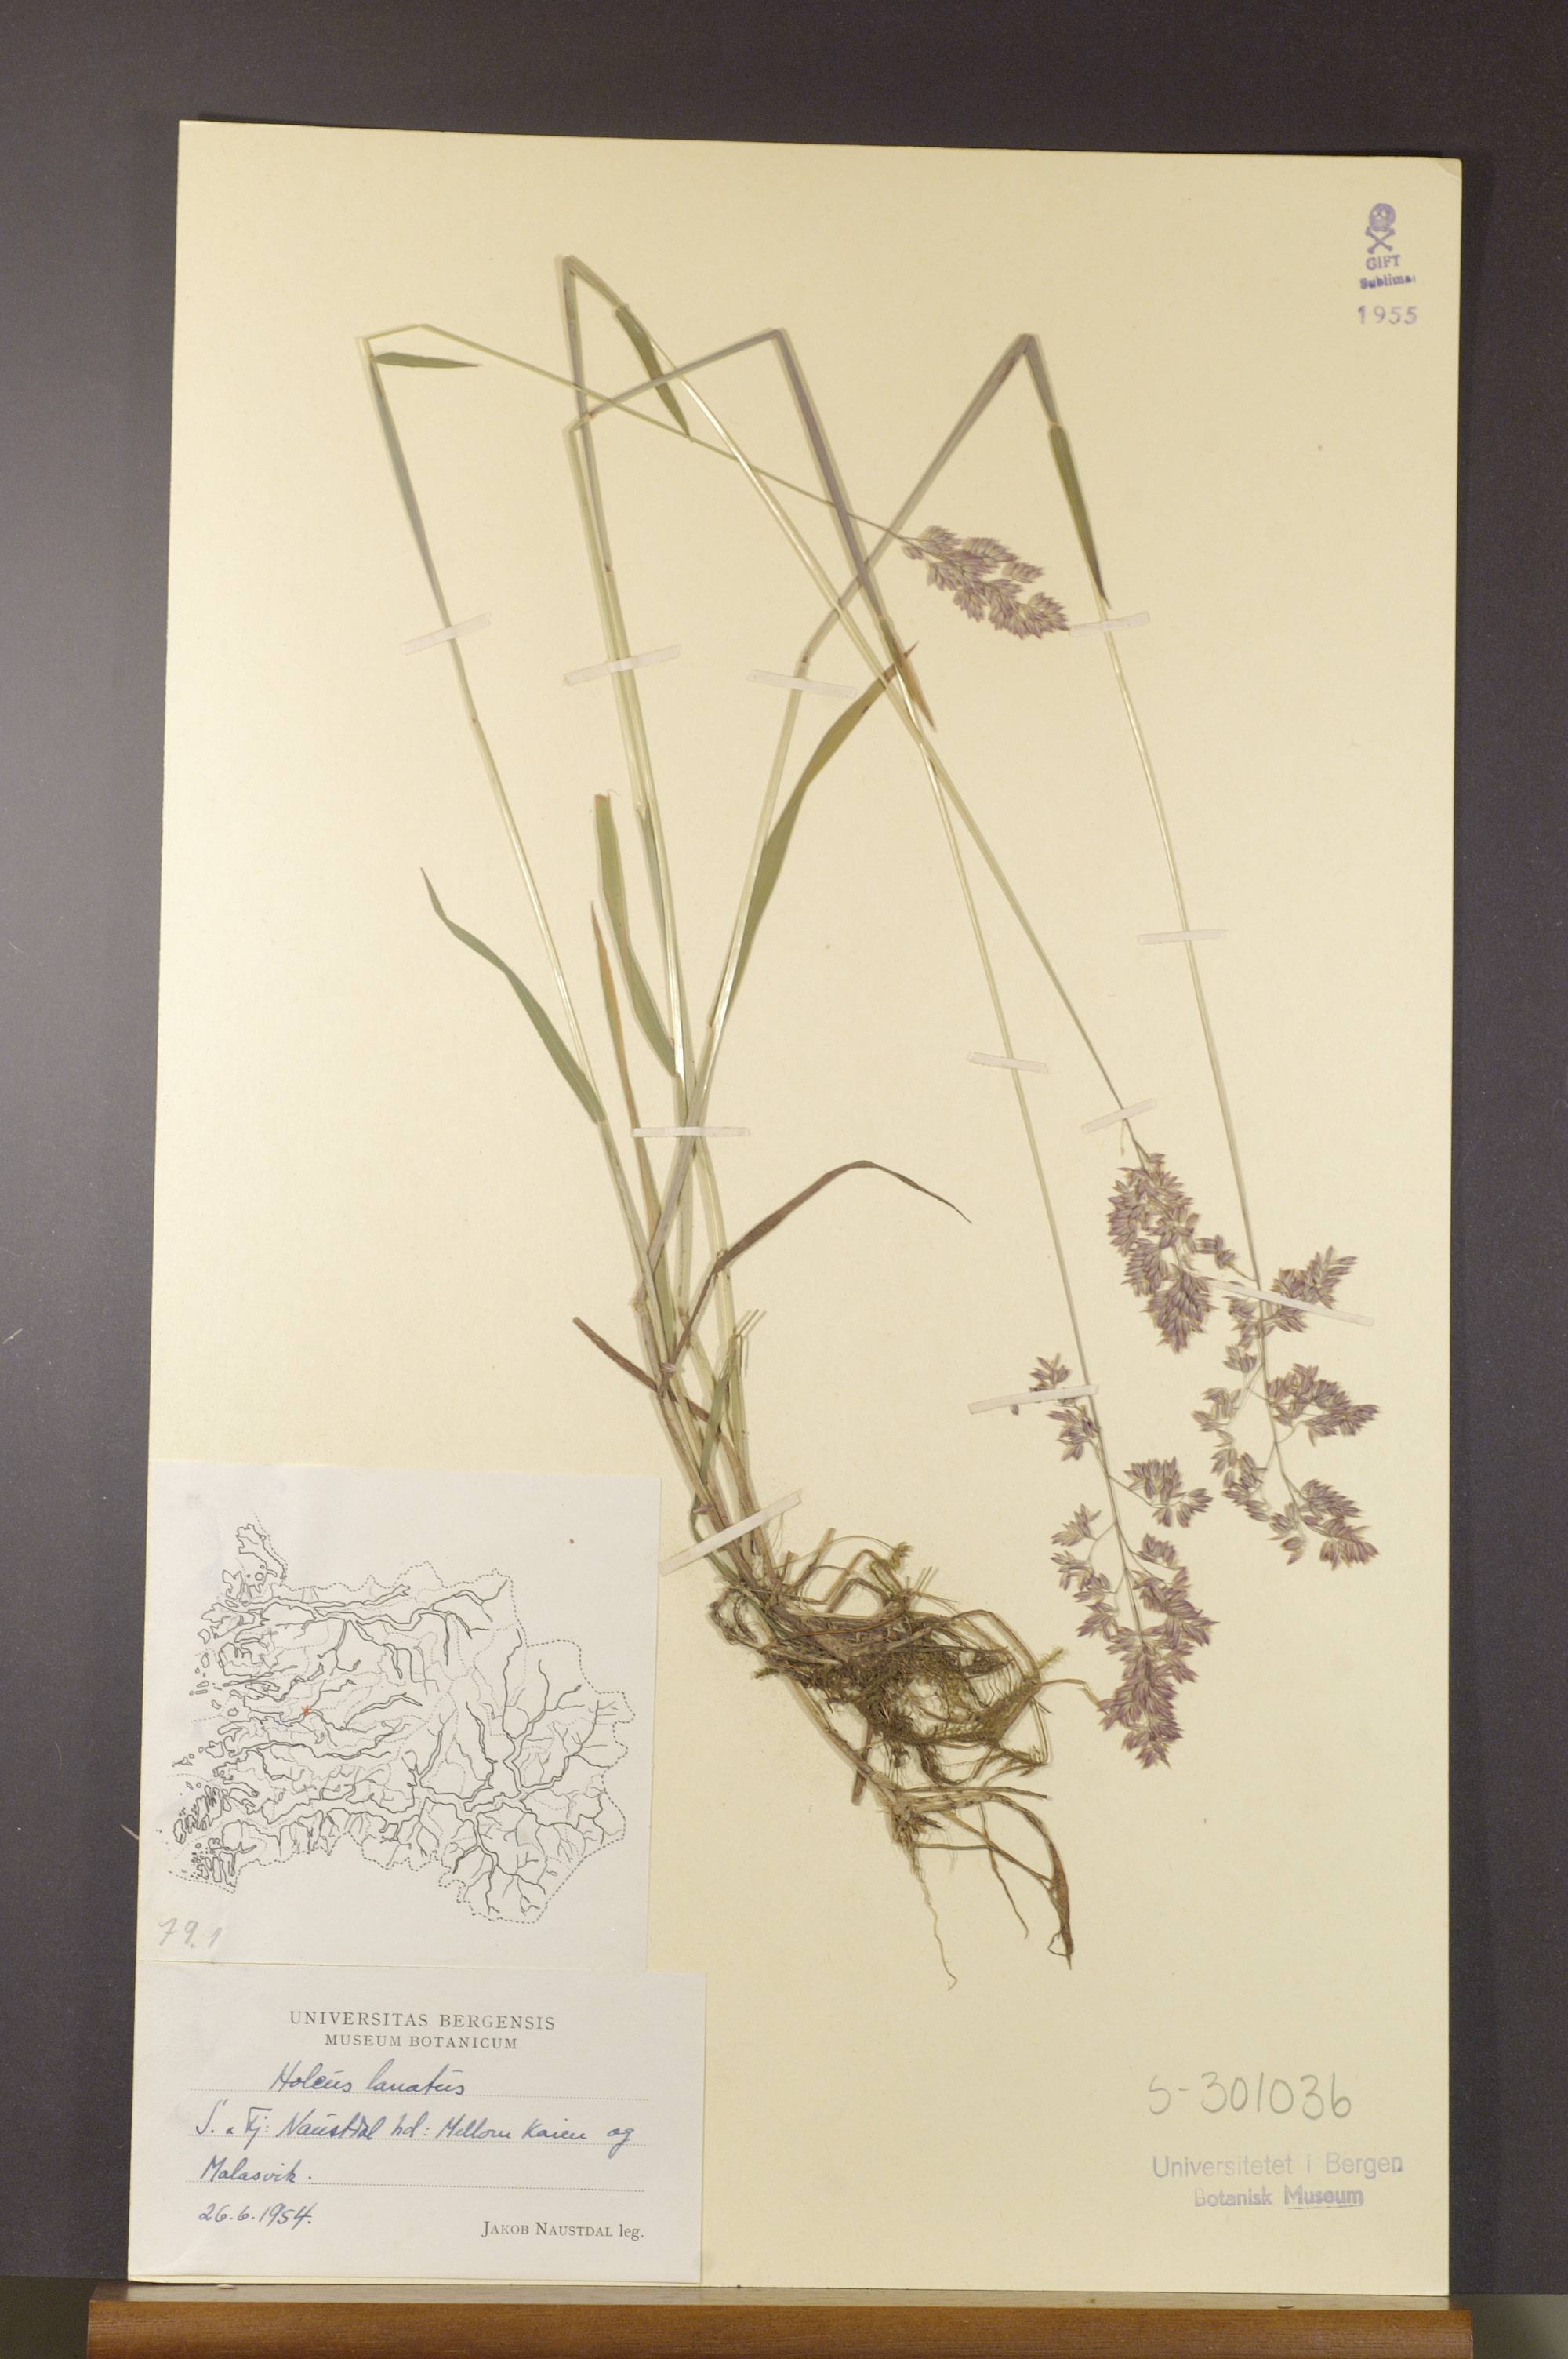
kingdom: Plantae
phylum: Tracheophyta
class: Liliopsida
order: Poales
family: Poaceae
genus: Holcus
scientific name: Holcus lanatus
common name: Yorkshire-fog
